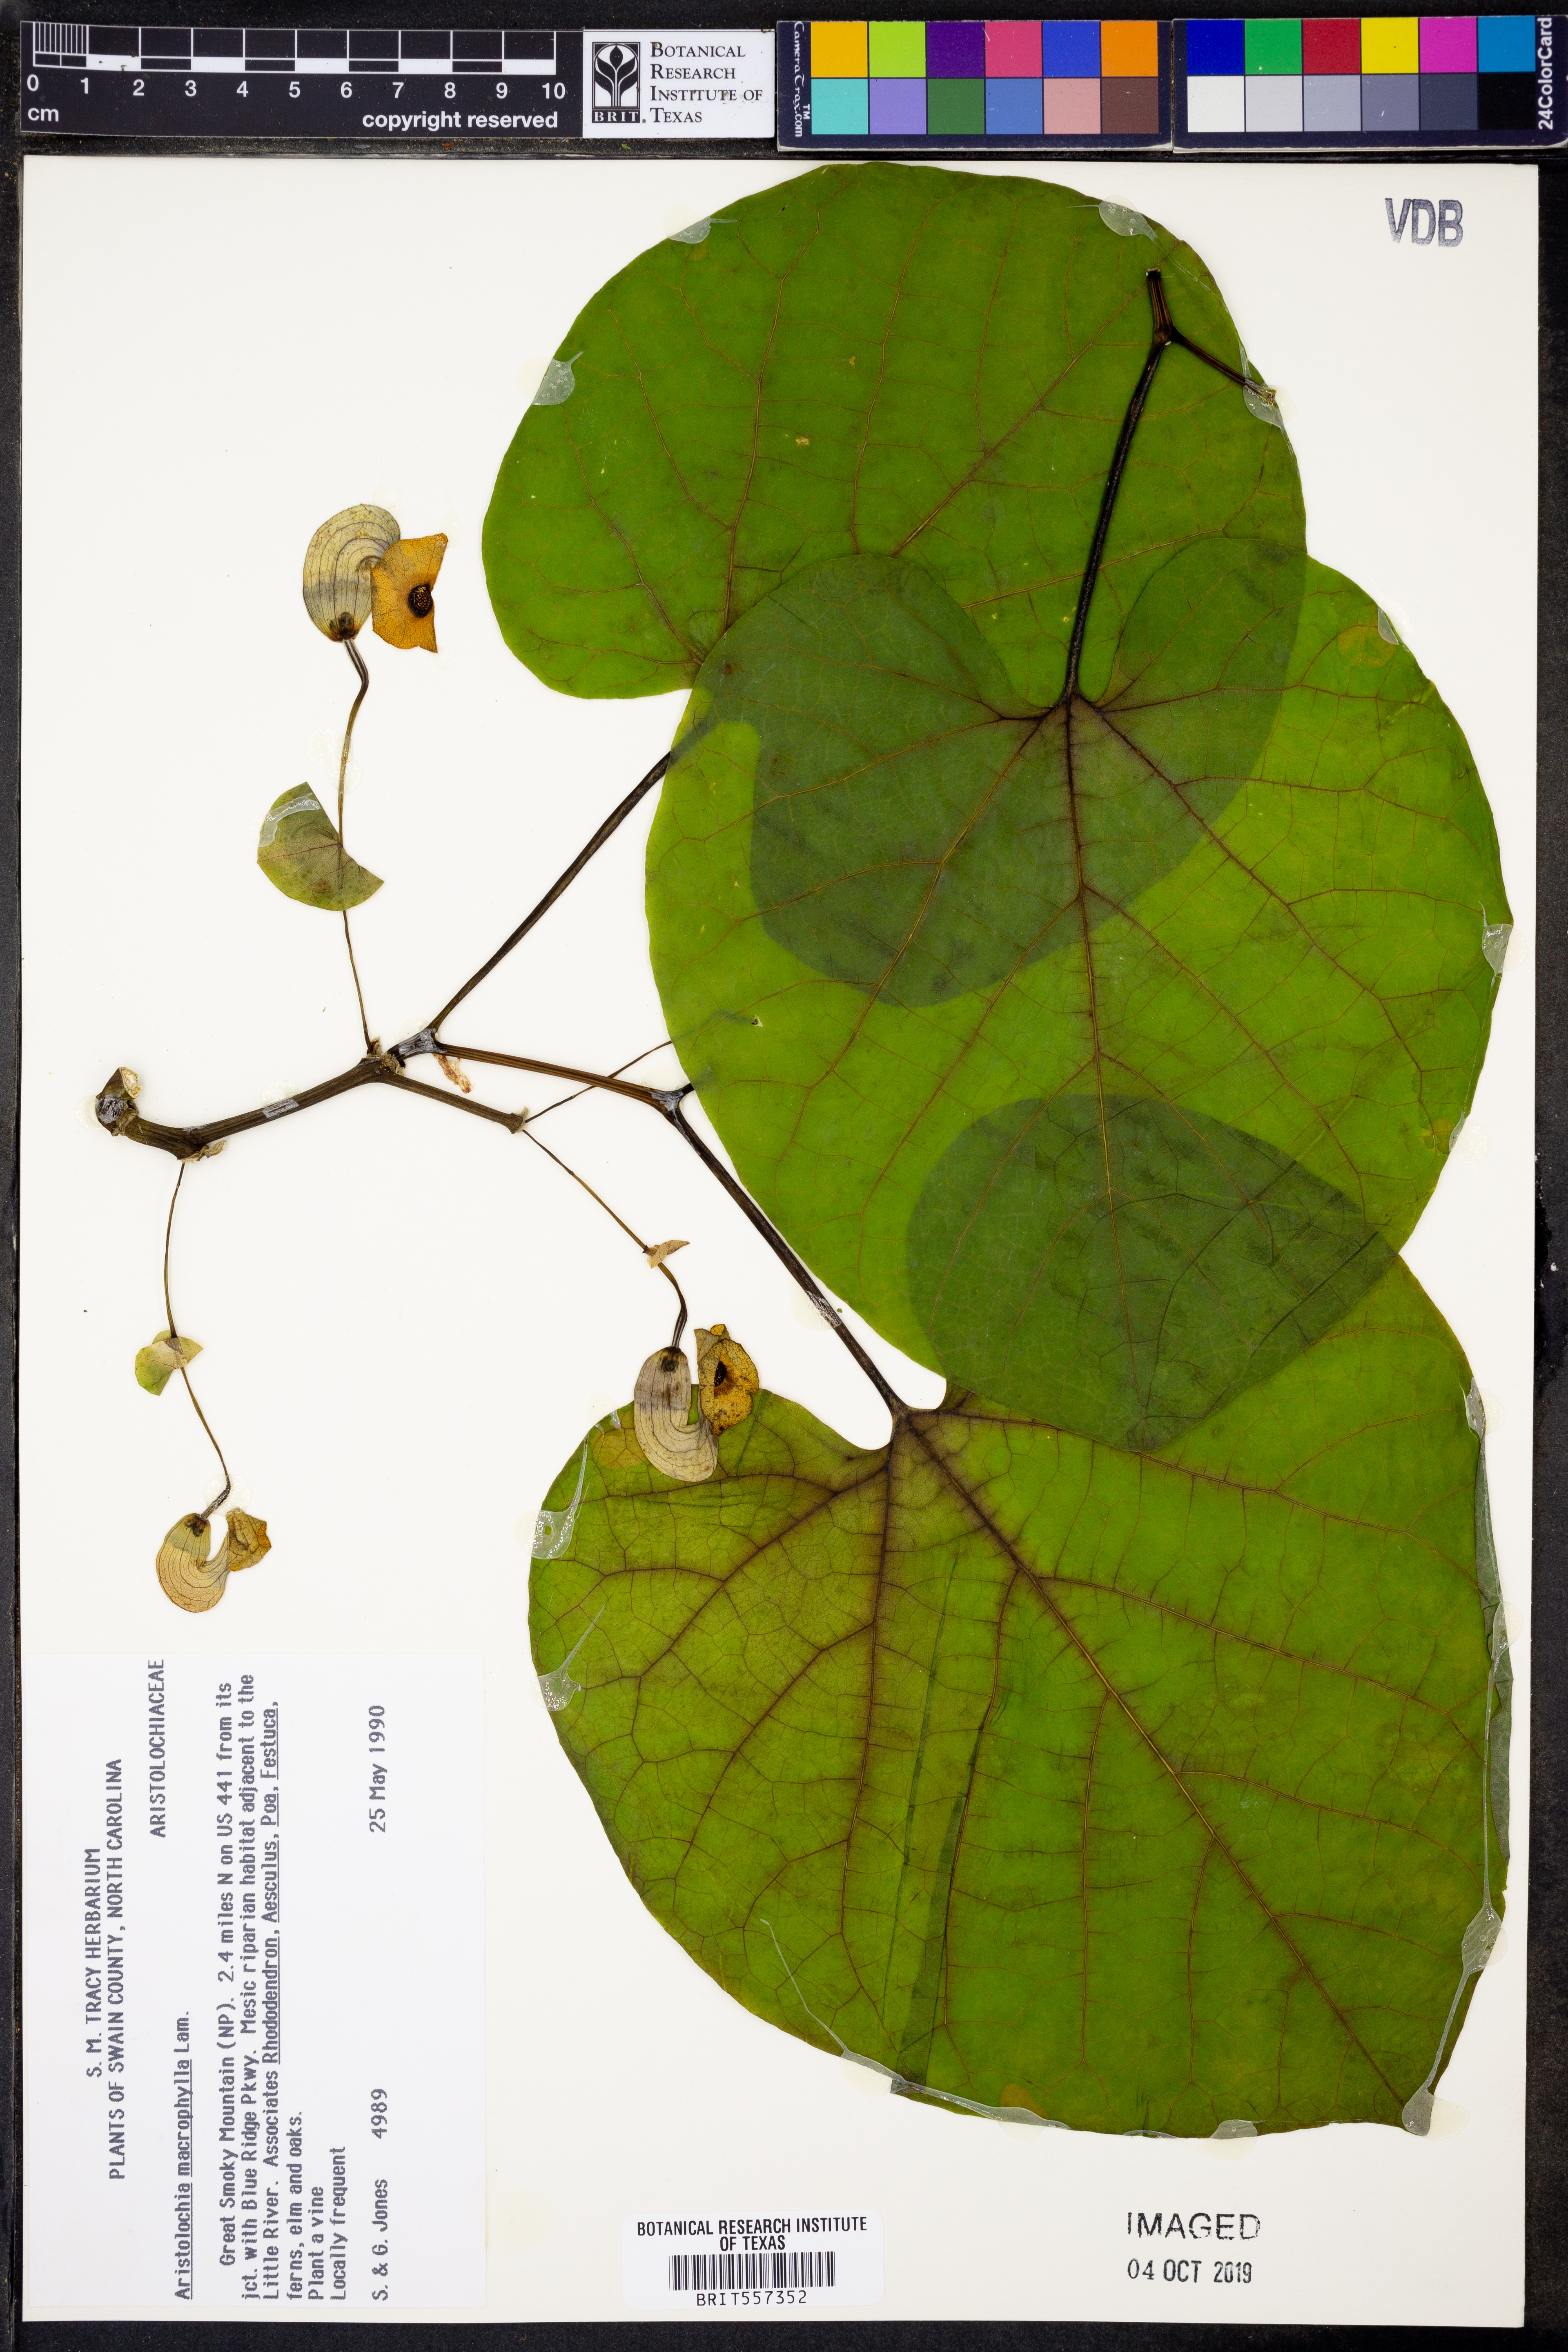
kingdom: Plantae
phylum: Tracheophyta
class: Magnoliopsida
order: Piperales
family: Aristolochiaceae
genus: Isotrema
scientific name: Isotrema macrophyllum
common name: Dutchman's-pipe
